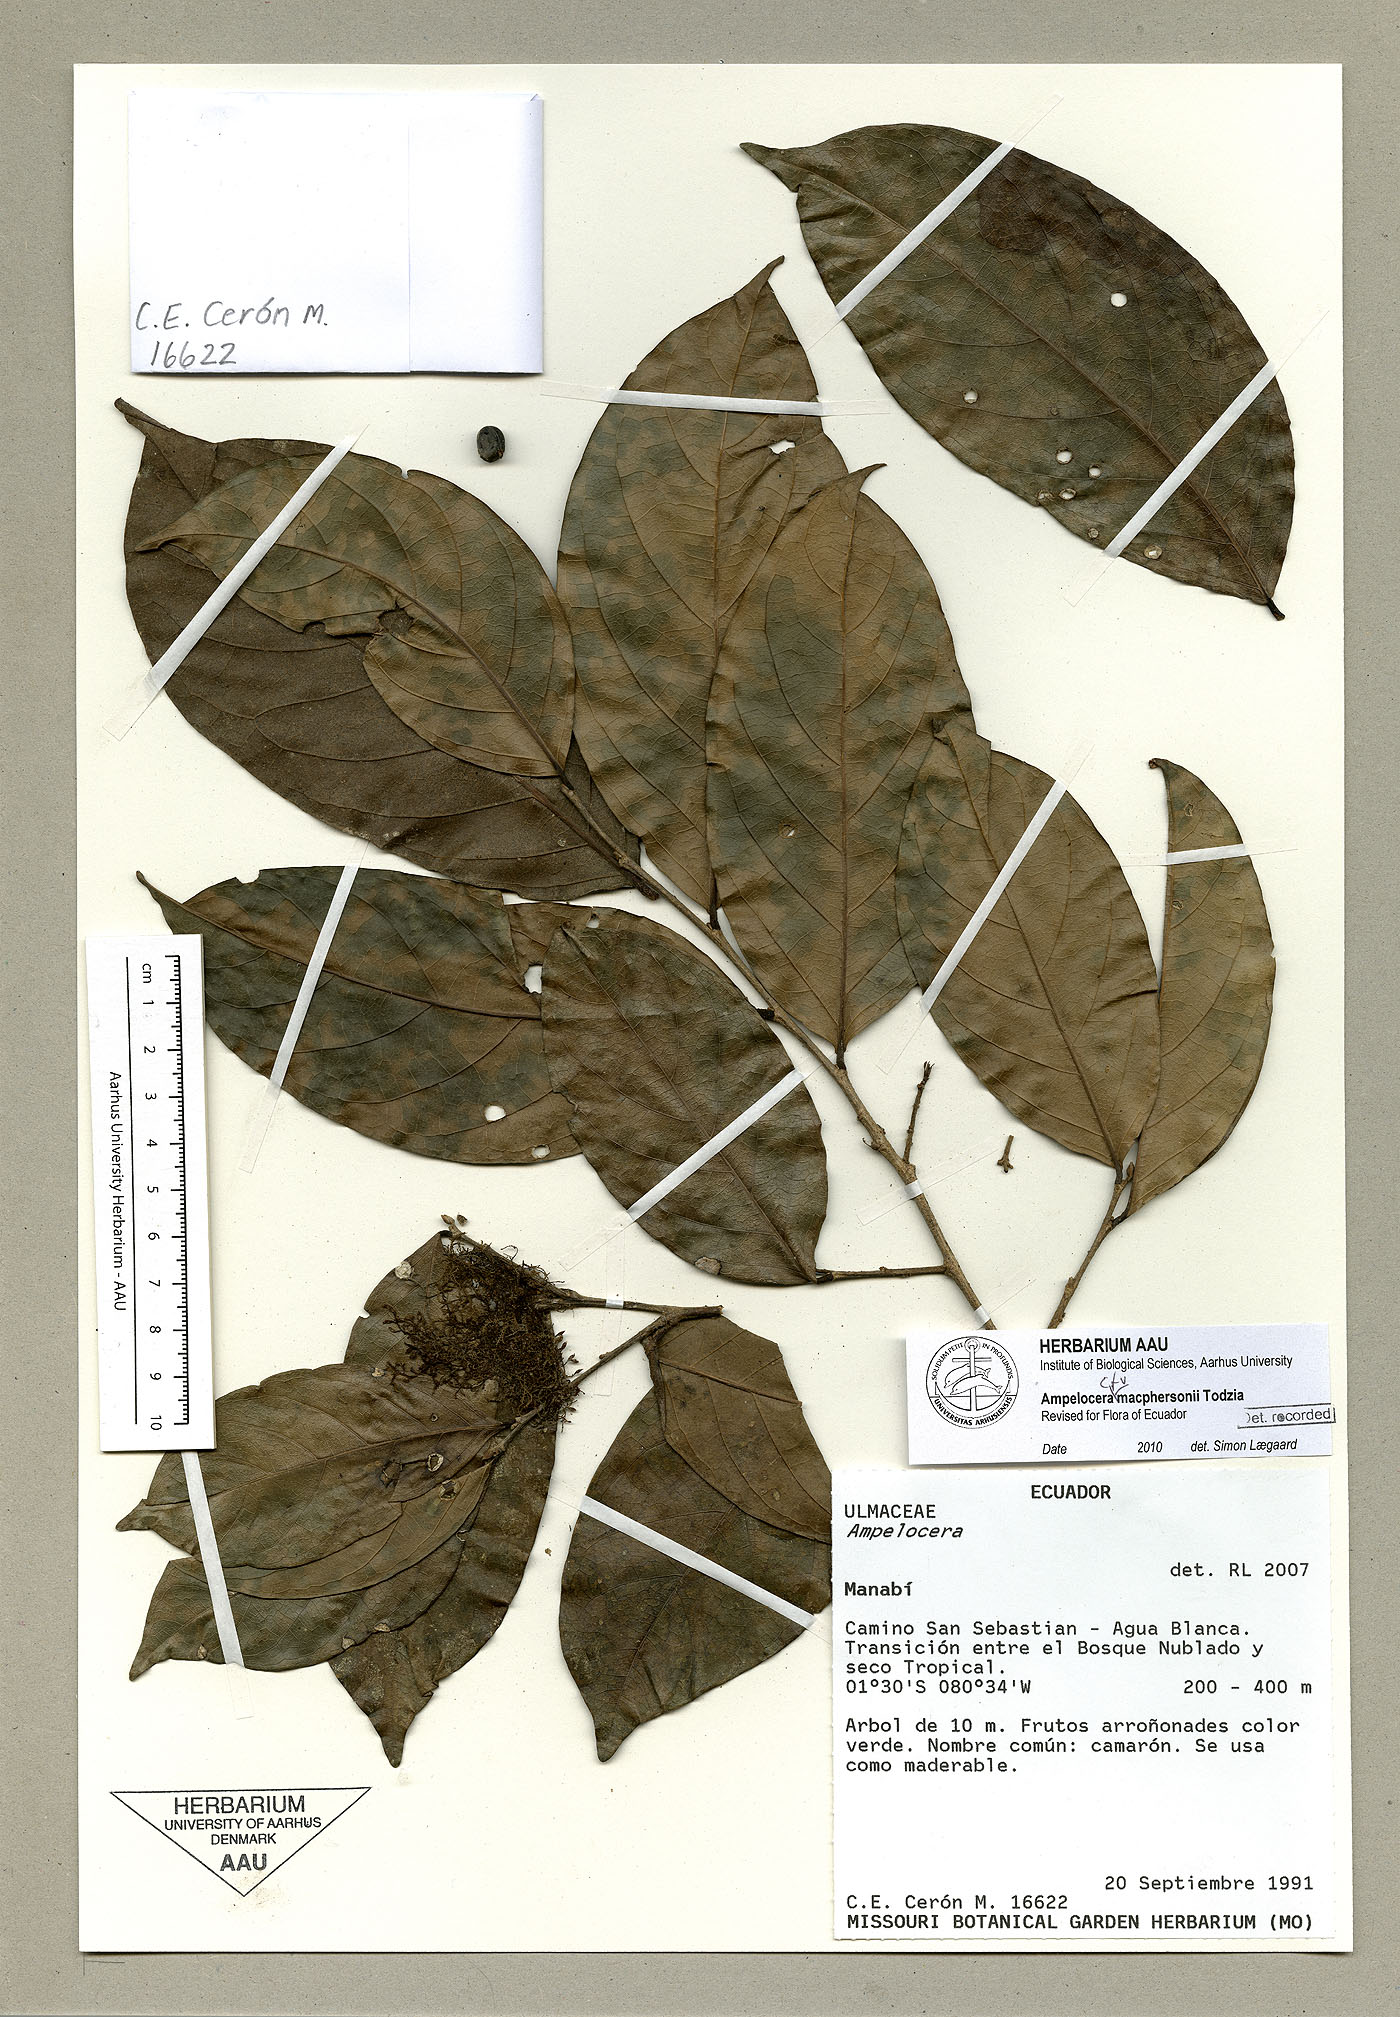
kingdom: Plantae
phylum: Tracheophyta
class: Magnoliopsida
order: Rosales
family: Cannabaceae
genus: Ampelocera
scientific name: Ampelocera macphersonii
